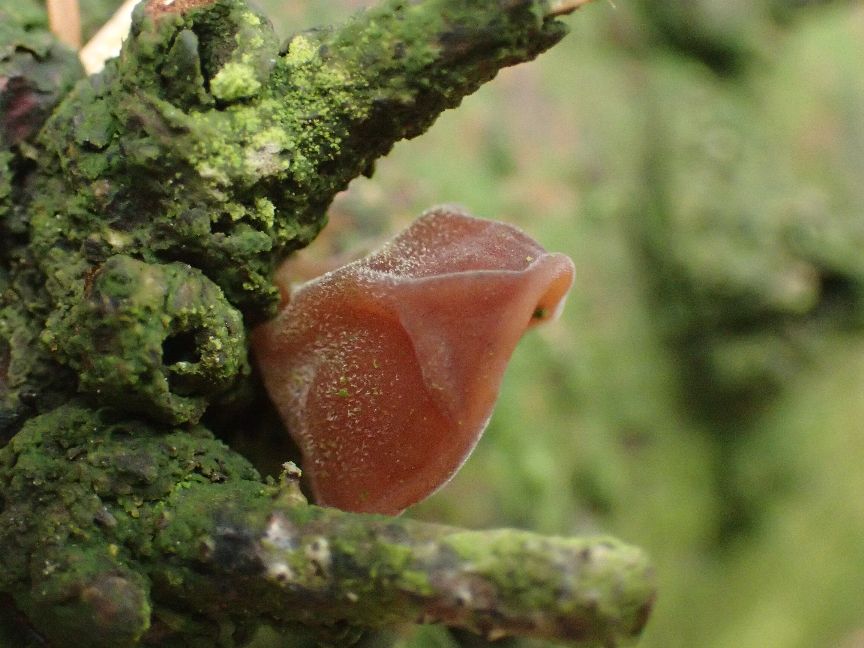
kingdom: Fungi
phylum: Basidiomycota
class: Agaricomycetes
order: Auriculariales
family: Auriculariaceae
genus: Auricularia
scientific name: Auricularia auricula-judae
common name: almindelig judasøre
